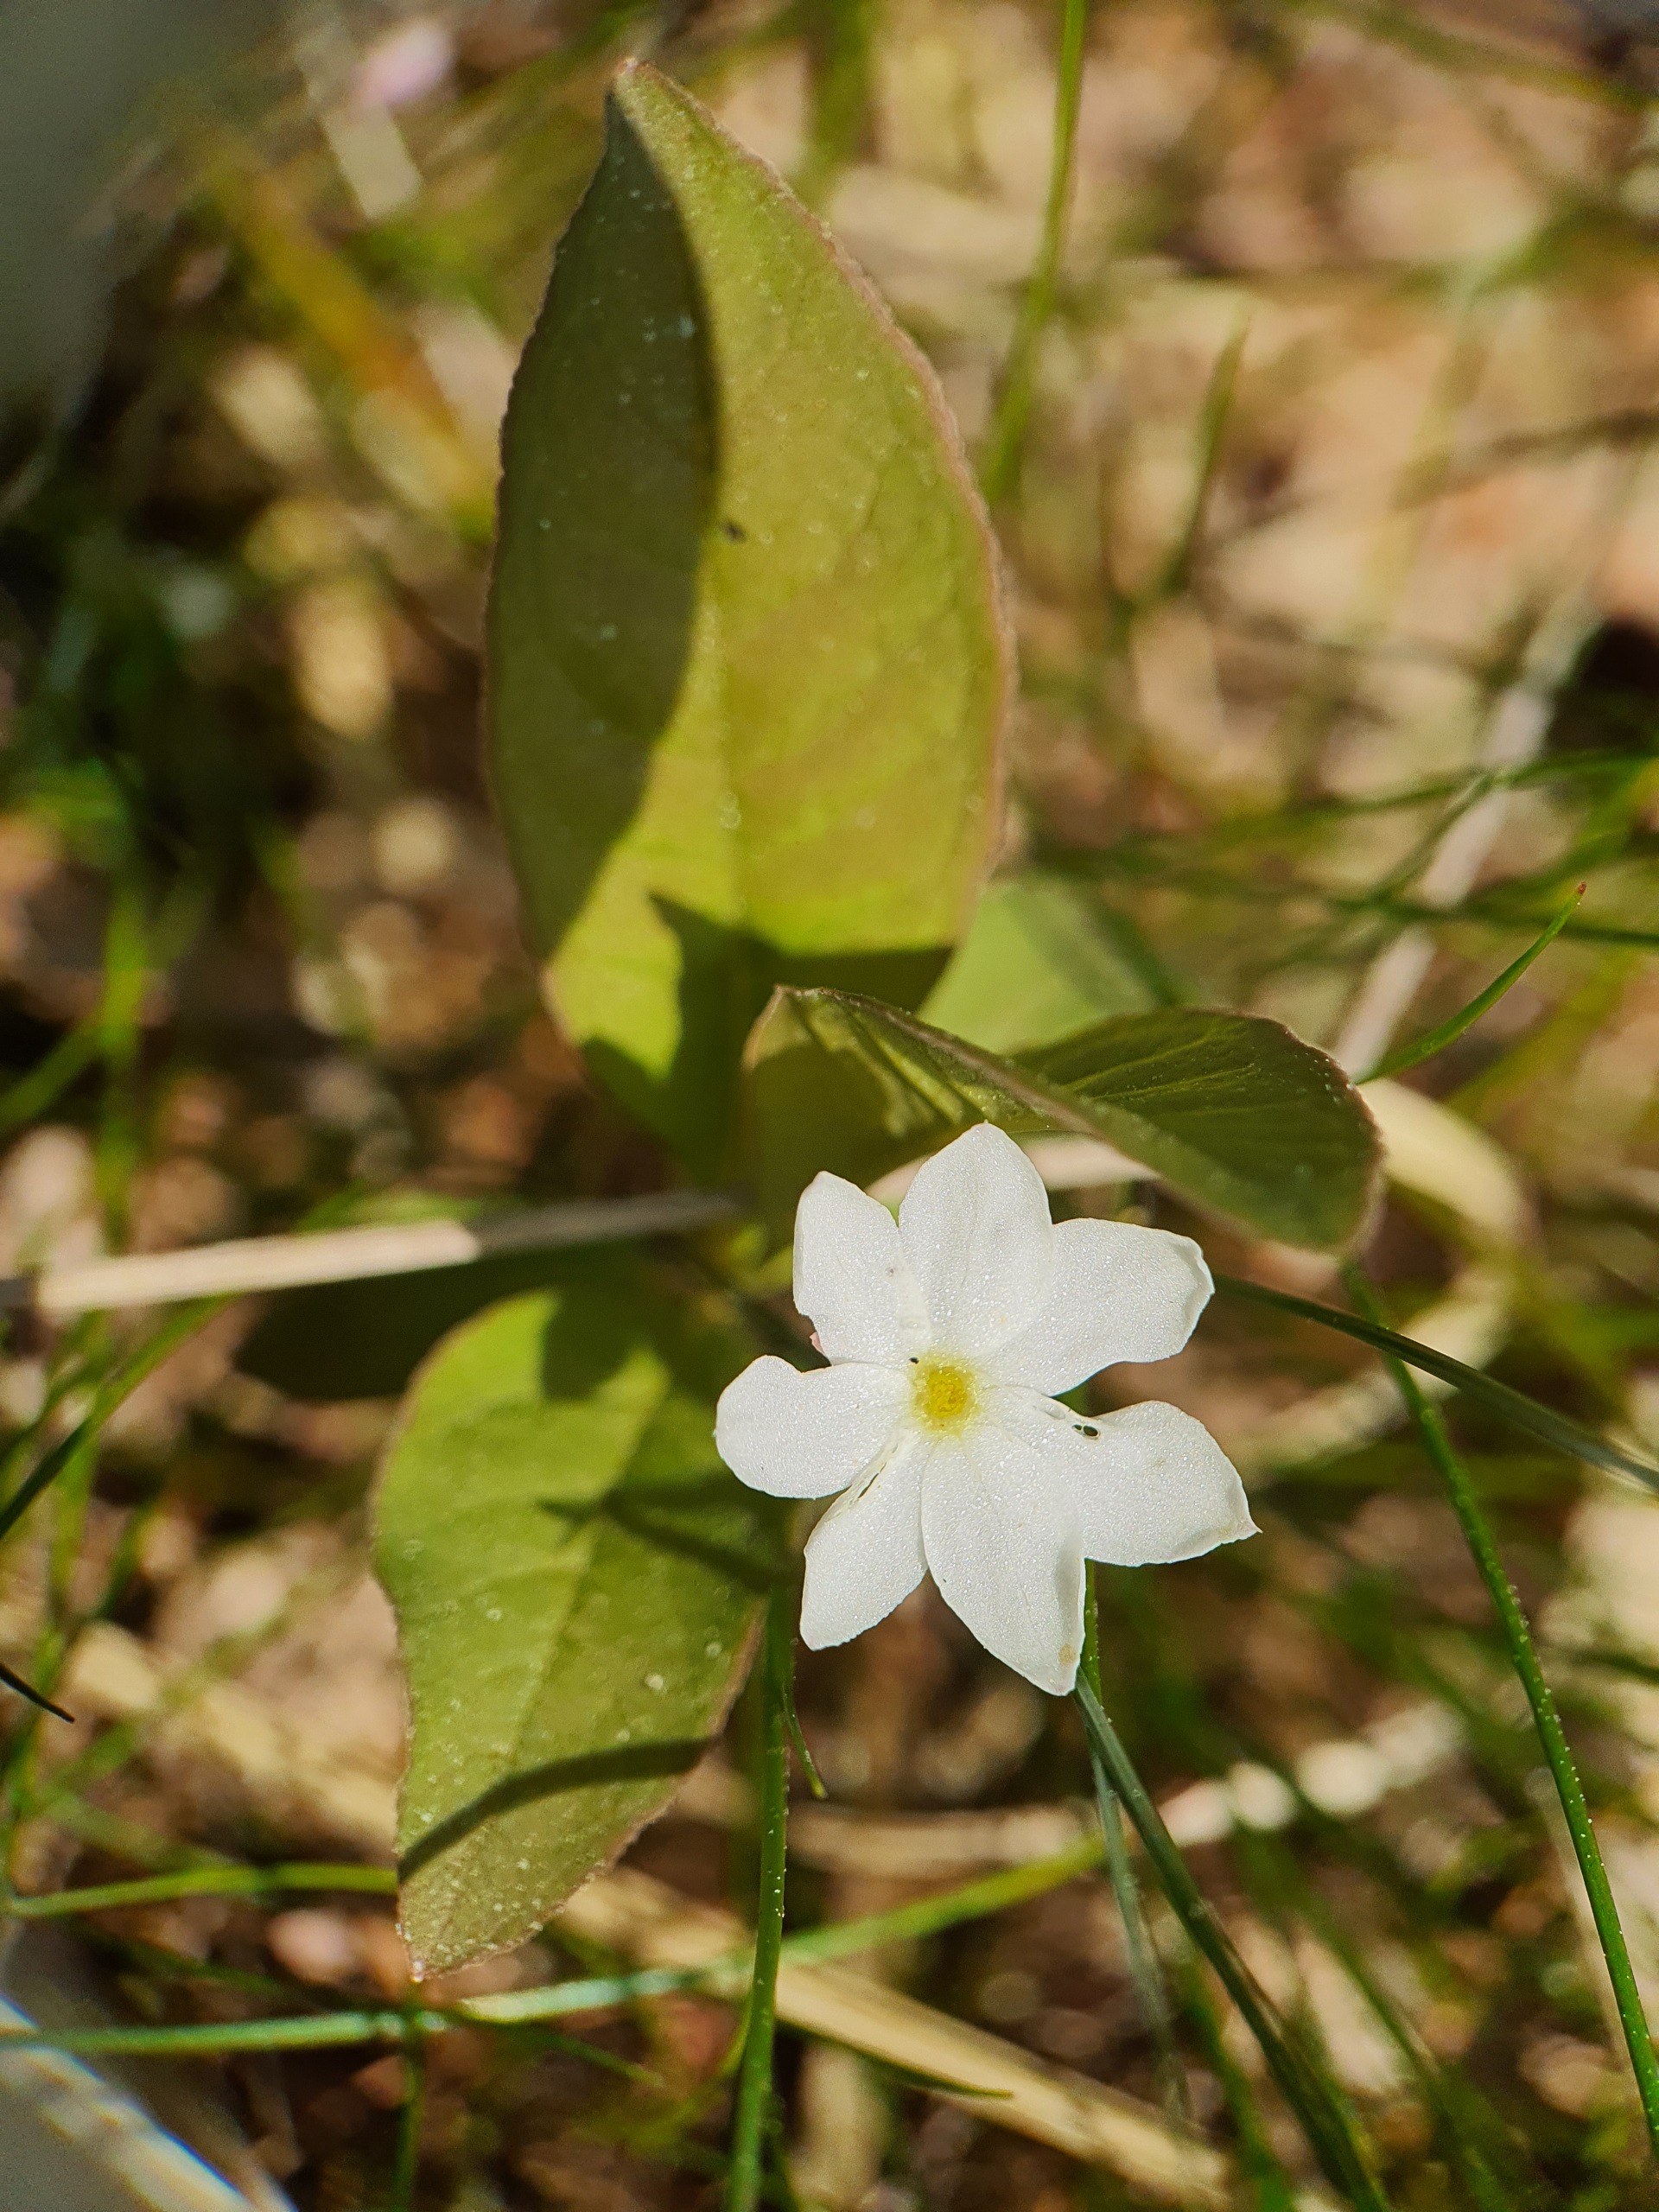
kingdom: Plantae
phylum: Tracheophyta
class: Magnoliopsida
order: Ericales
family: Primulaceae
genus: Lysimachia
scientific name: Lysimachia europaea
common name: Skovstjerne
